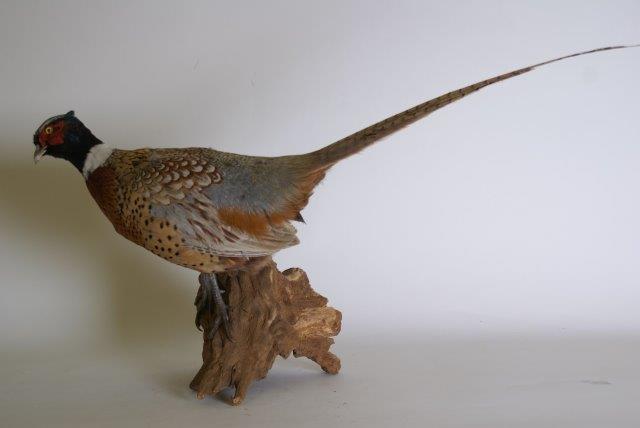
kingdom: Animalia
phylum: Chordata
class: Aves
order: Galliformes
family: Phasianidae
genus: Phasianus
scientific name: Phasianus colchicus
